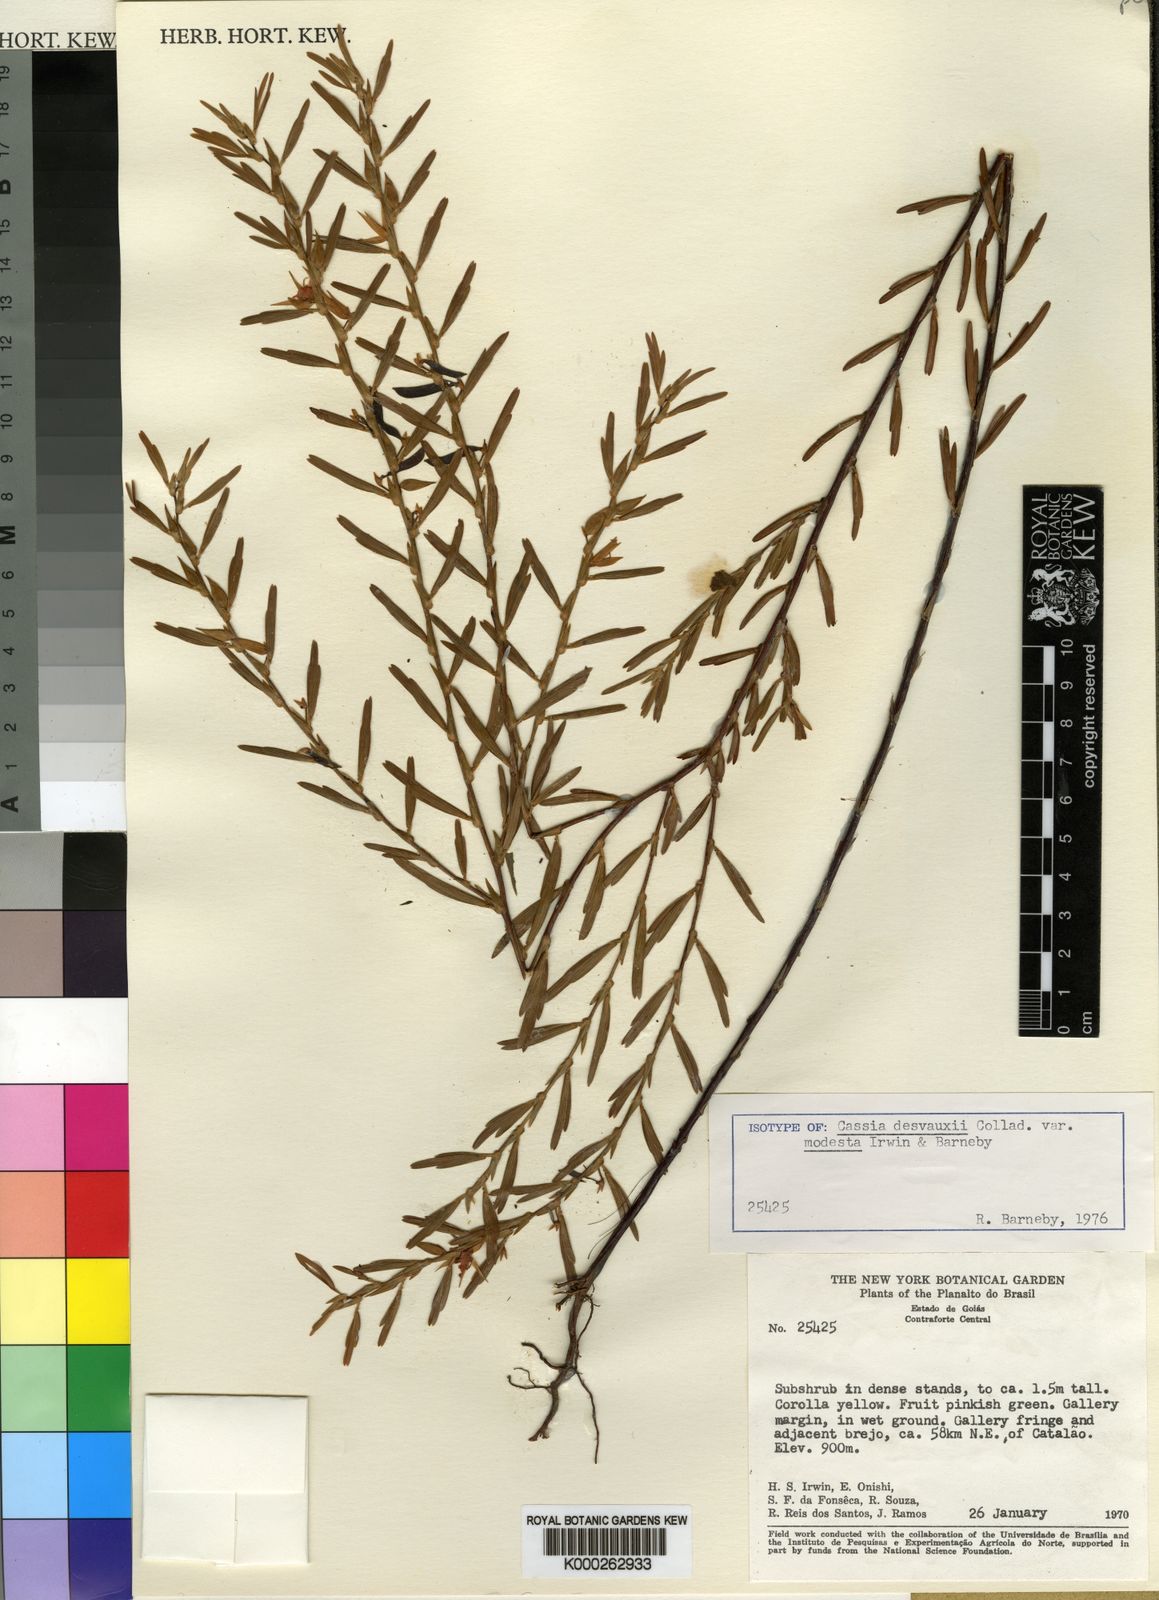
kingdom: Plantae
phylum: Tracheophyta
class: Magnoliopsida
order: Fabales
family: Fabaceae
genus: Chamaecrista
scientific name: Chamaecrista desvauxii
